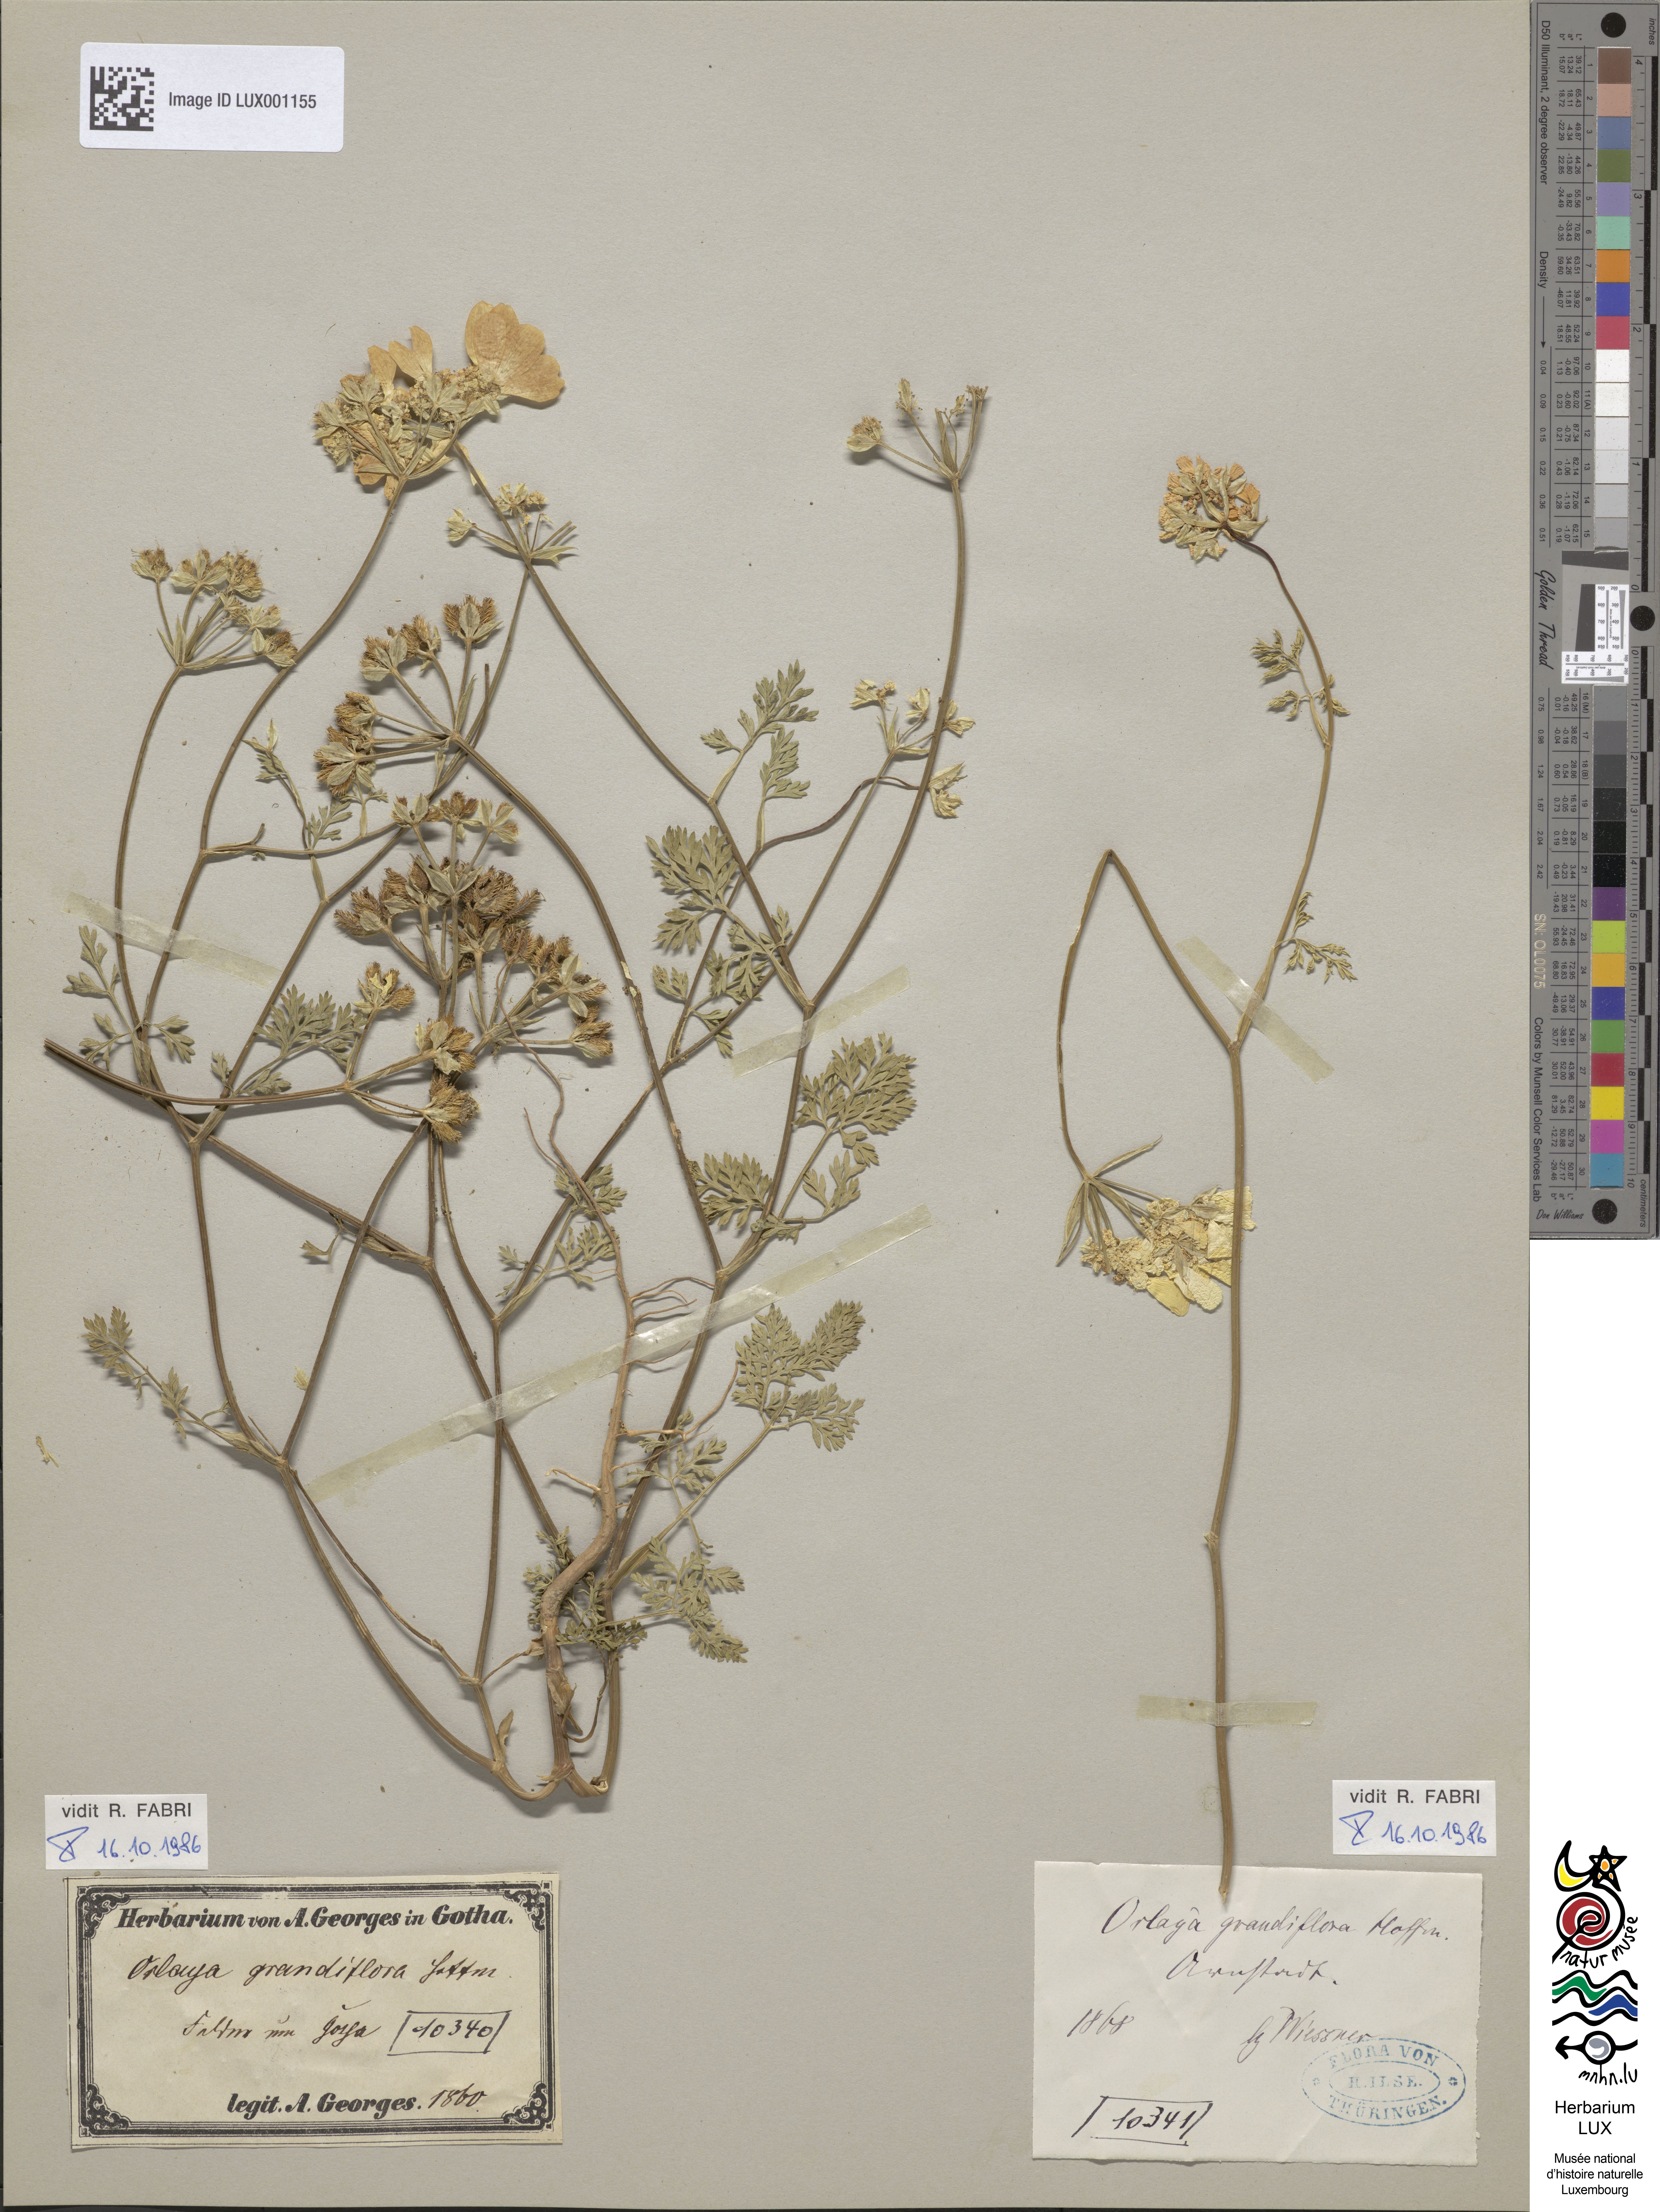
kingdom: Plantae
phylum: Tracheophyta
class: Magnoliopsida
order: Apiales
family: Apiaceae
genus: Orlaya
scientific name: Orlaya grandiflora
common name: White lace flower
